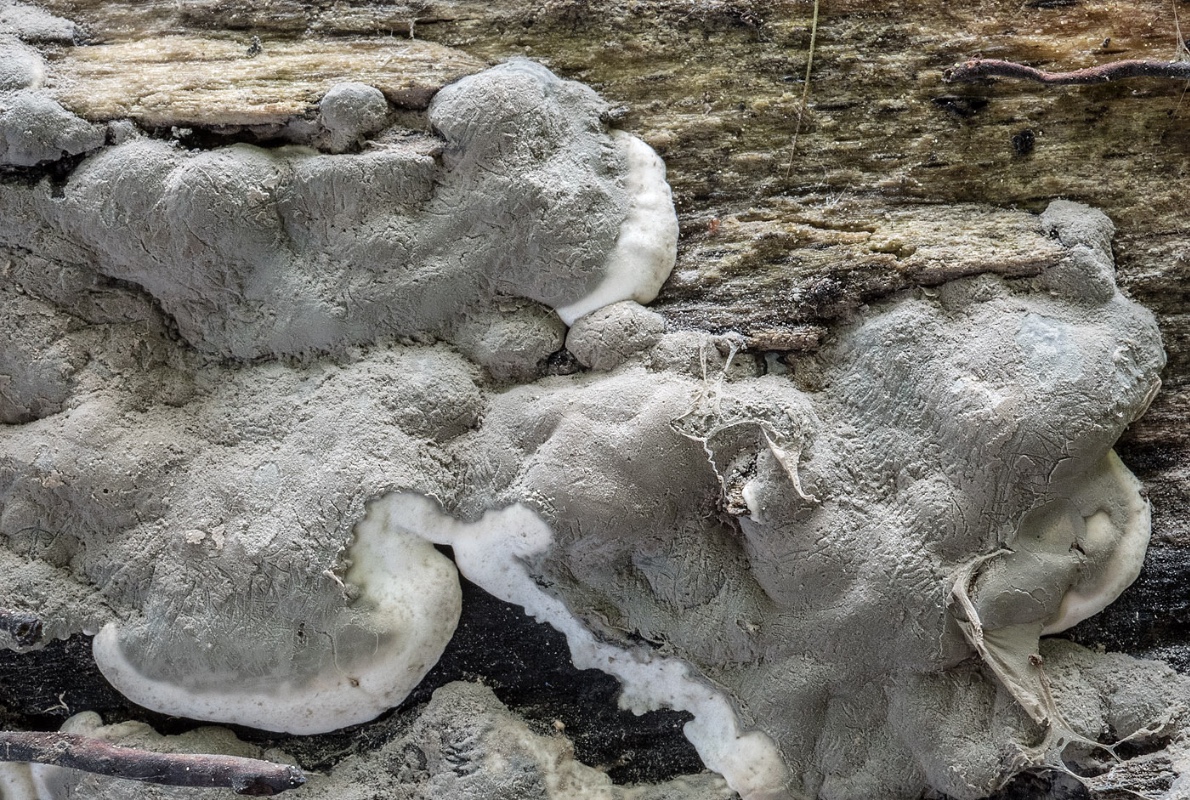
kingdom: Fungi
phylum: Ascomycota
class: Sordariomycetes
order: Xylariales
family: Xylariaceae
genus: Kretzschmaria
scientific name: Kretzschmaria deusta
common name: stor kulsvamp
